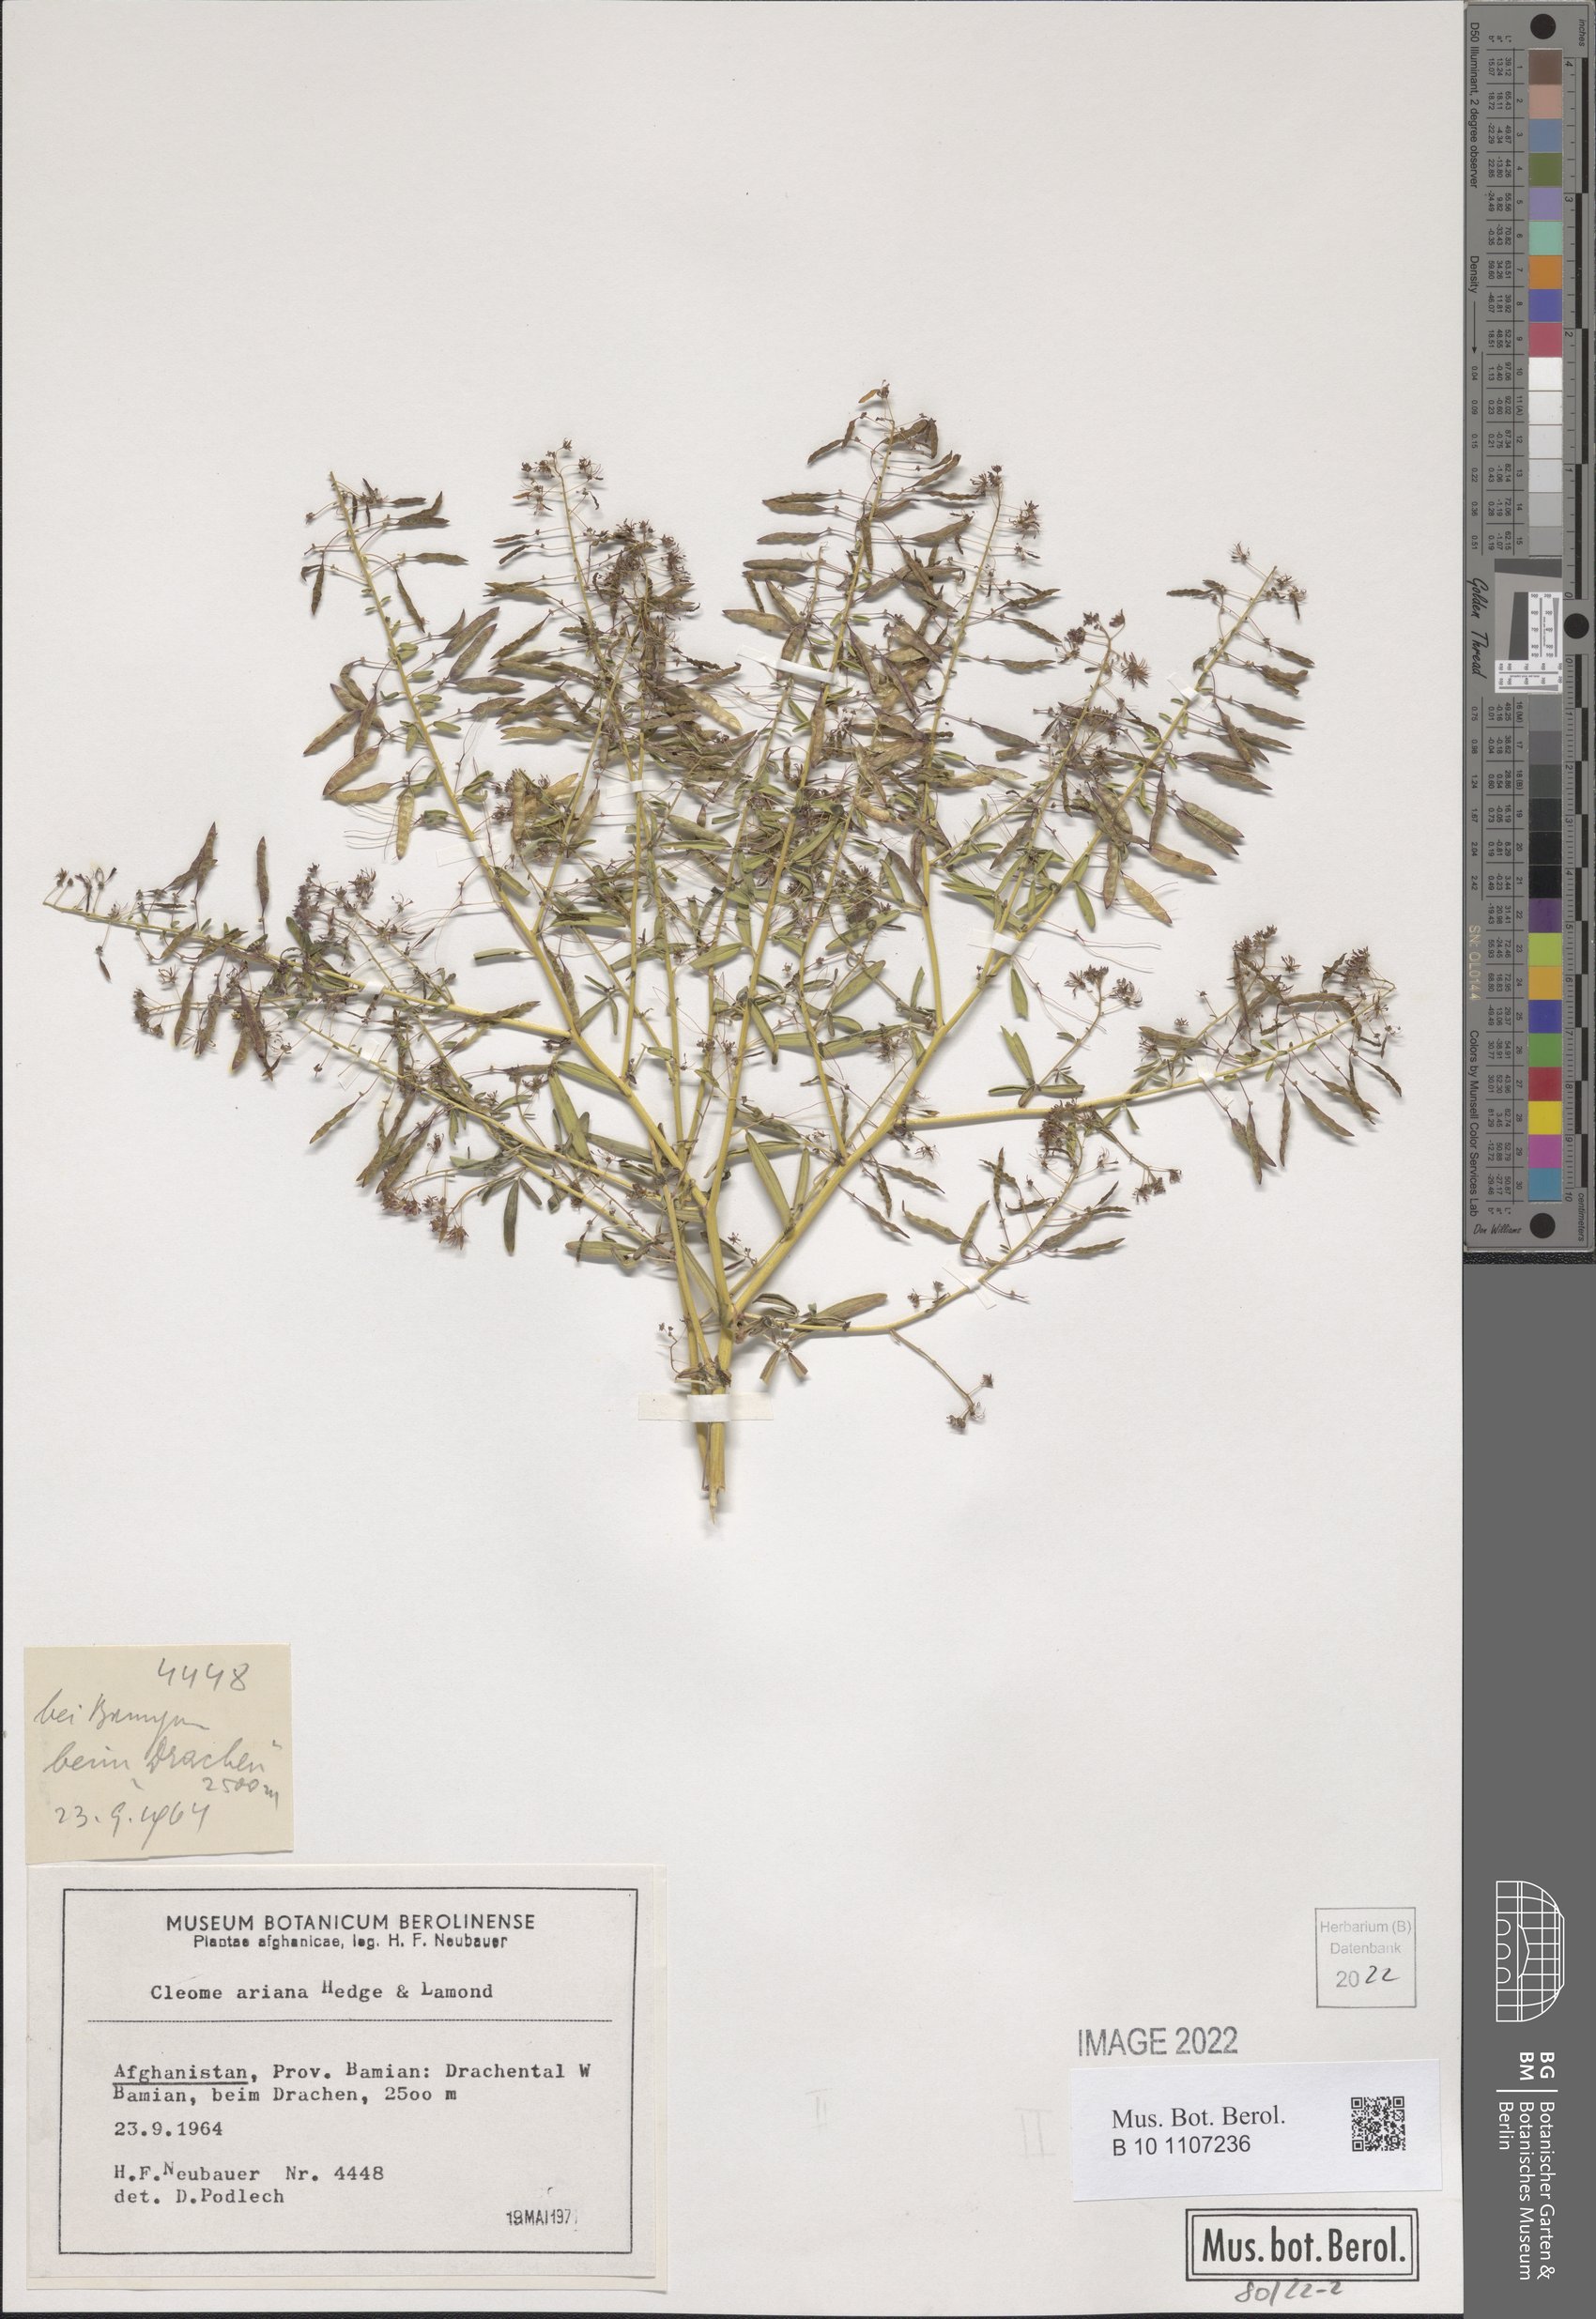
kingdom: Plantae
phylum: Tracheophyta
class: Magnoliopsida
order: Brassicales
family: Cleomaceae
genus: Cleome
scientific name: Cleome ariana
